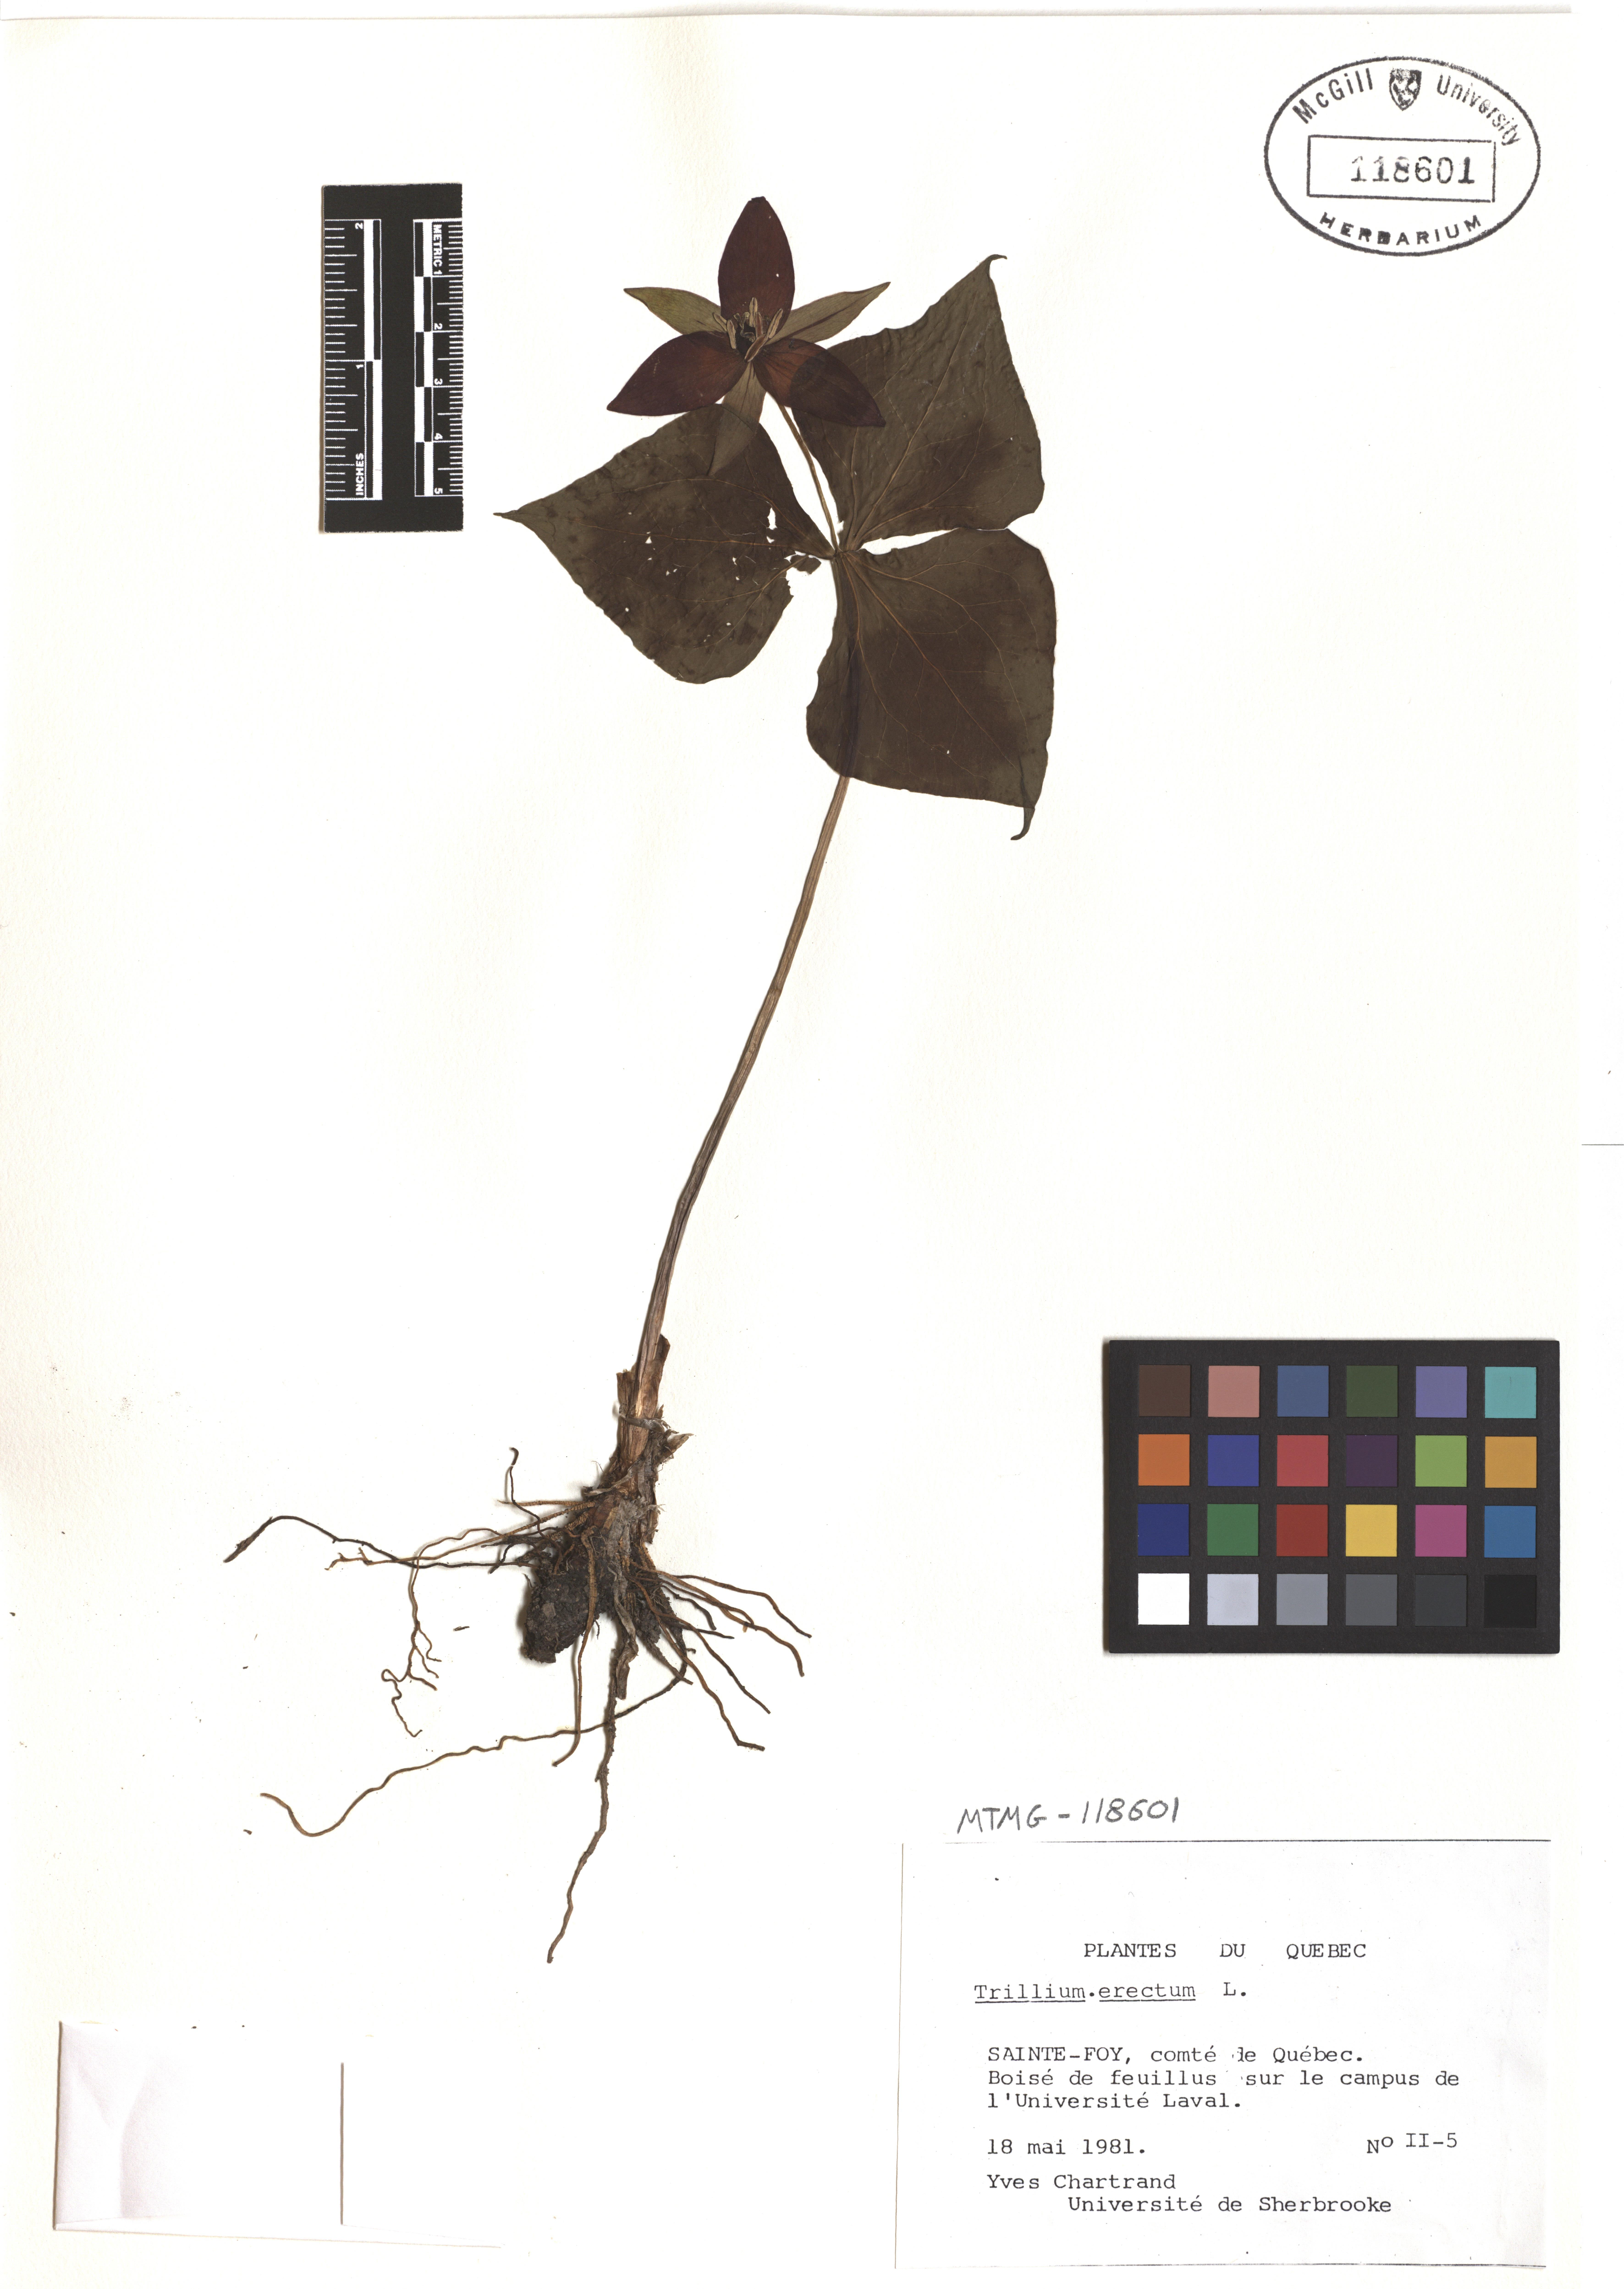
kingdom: Plantae
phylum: Tracheophyta
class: Liliopsida
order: Liliales
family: Melanthiaceae
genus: Trillium
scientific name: Trillium erectum
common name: Purple trillium
